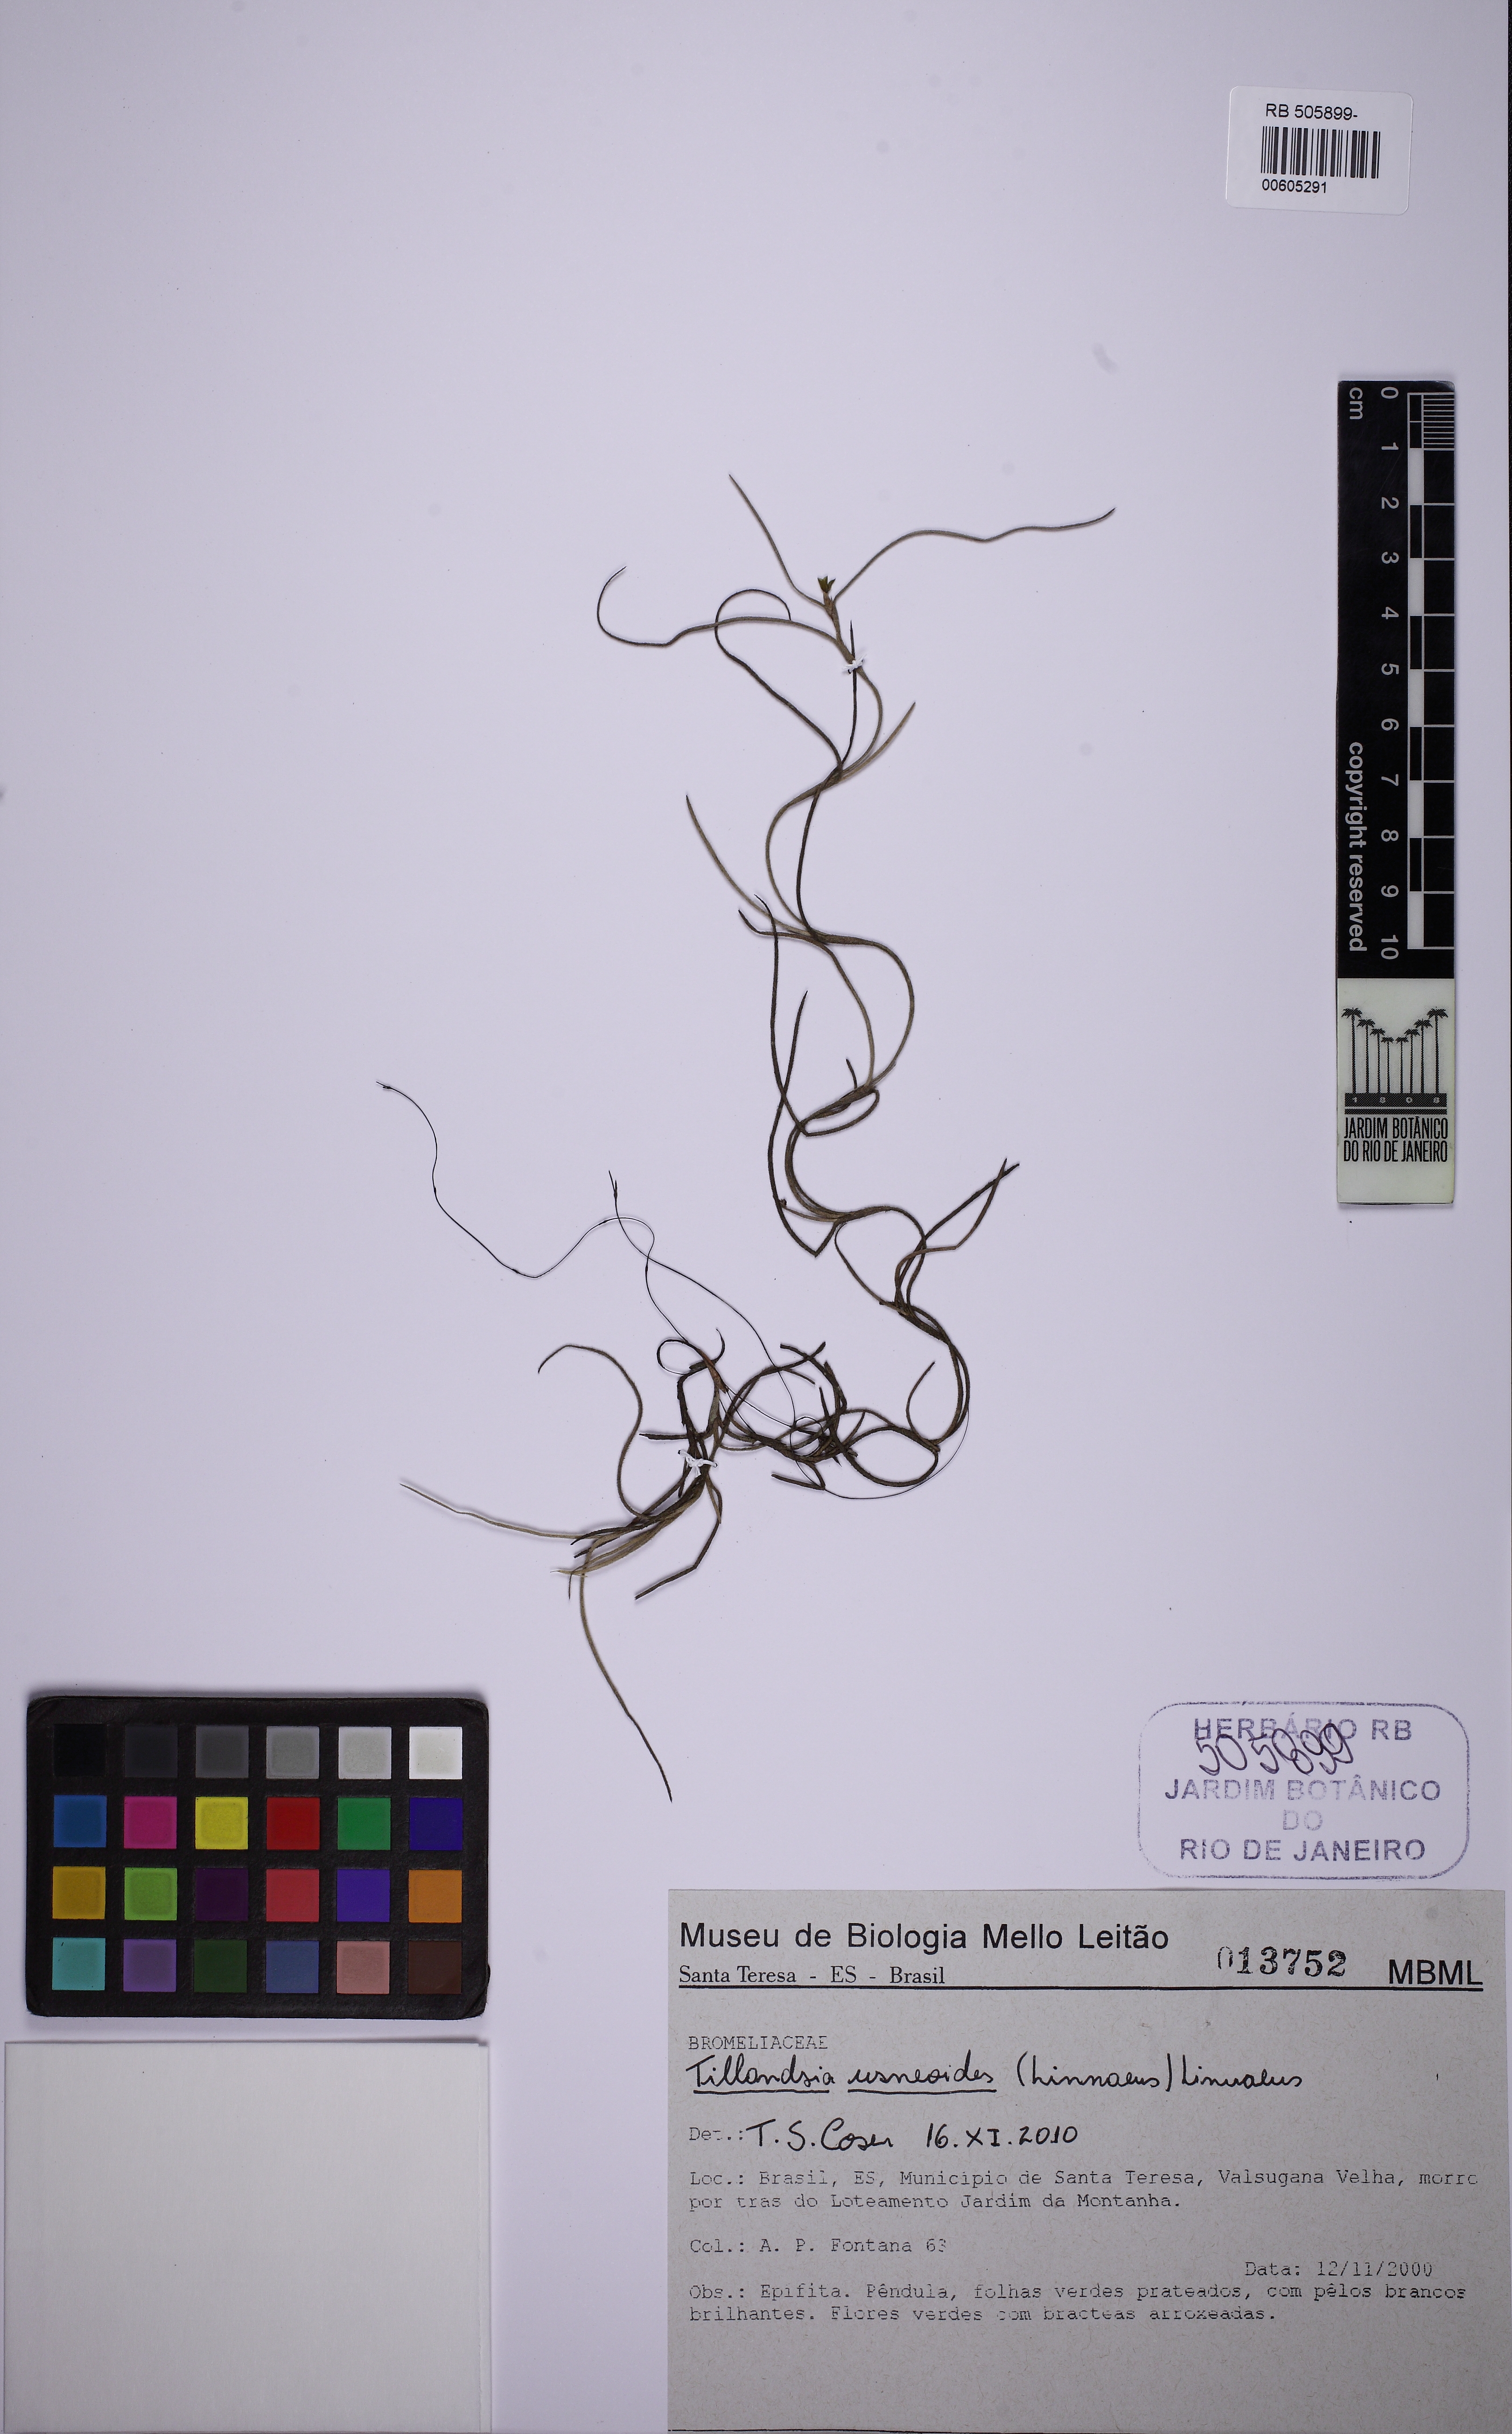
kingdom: Plantae
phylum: Tracheophyta
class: Liliopsida
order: Poales
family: Bromeliaceae
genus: Tillandsia
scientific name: Tillandsia usneoides
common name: Spanish moss
